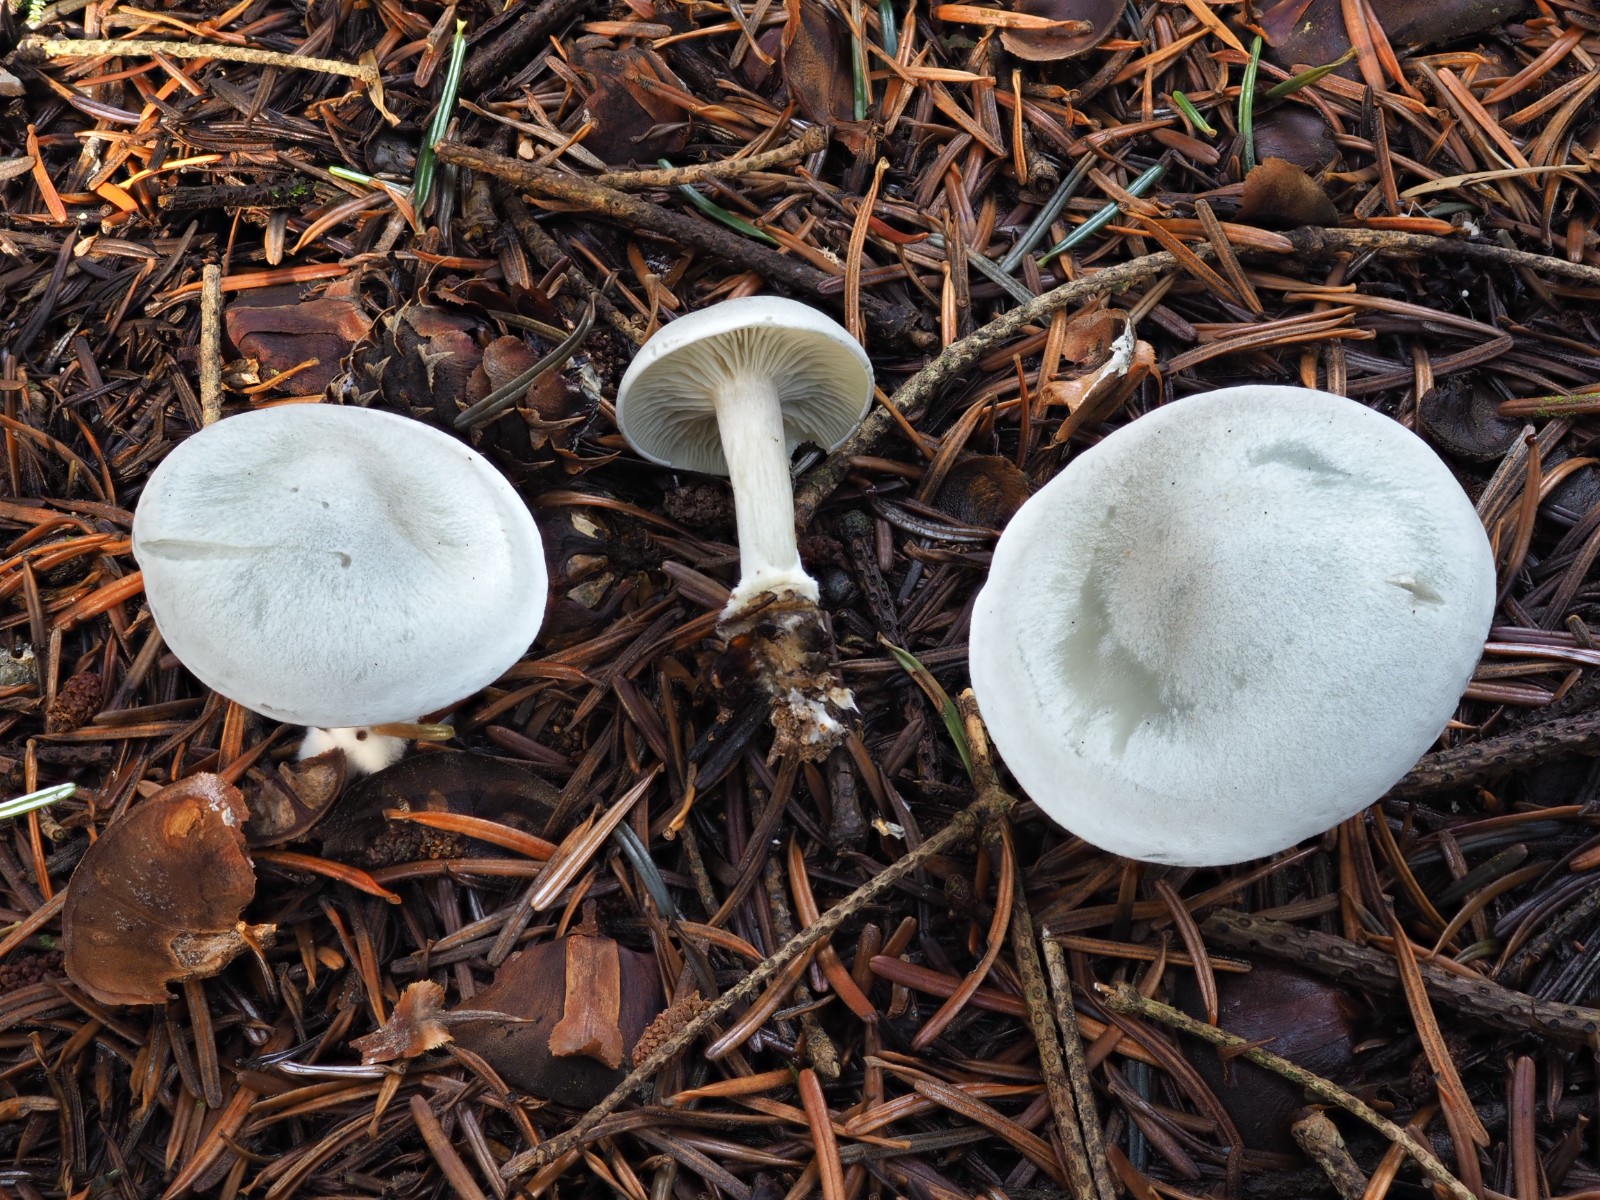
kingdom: Fungi
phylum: Basidiomycota
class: Agaricomycetes
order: Agaricales
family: Tricholomataceae
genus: Clitocybe
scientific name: Clitocybe odora
